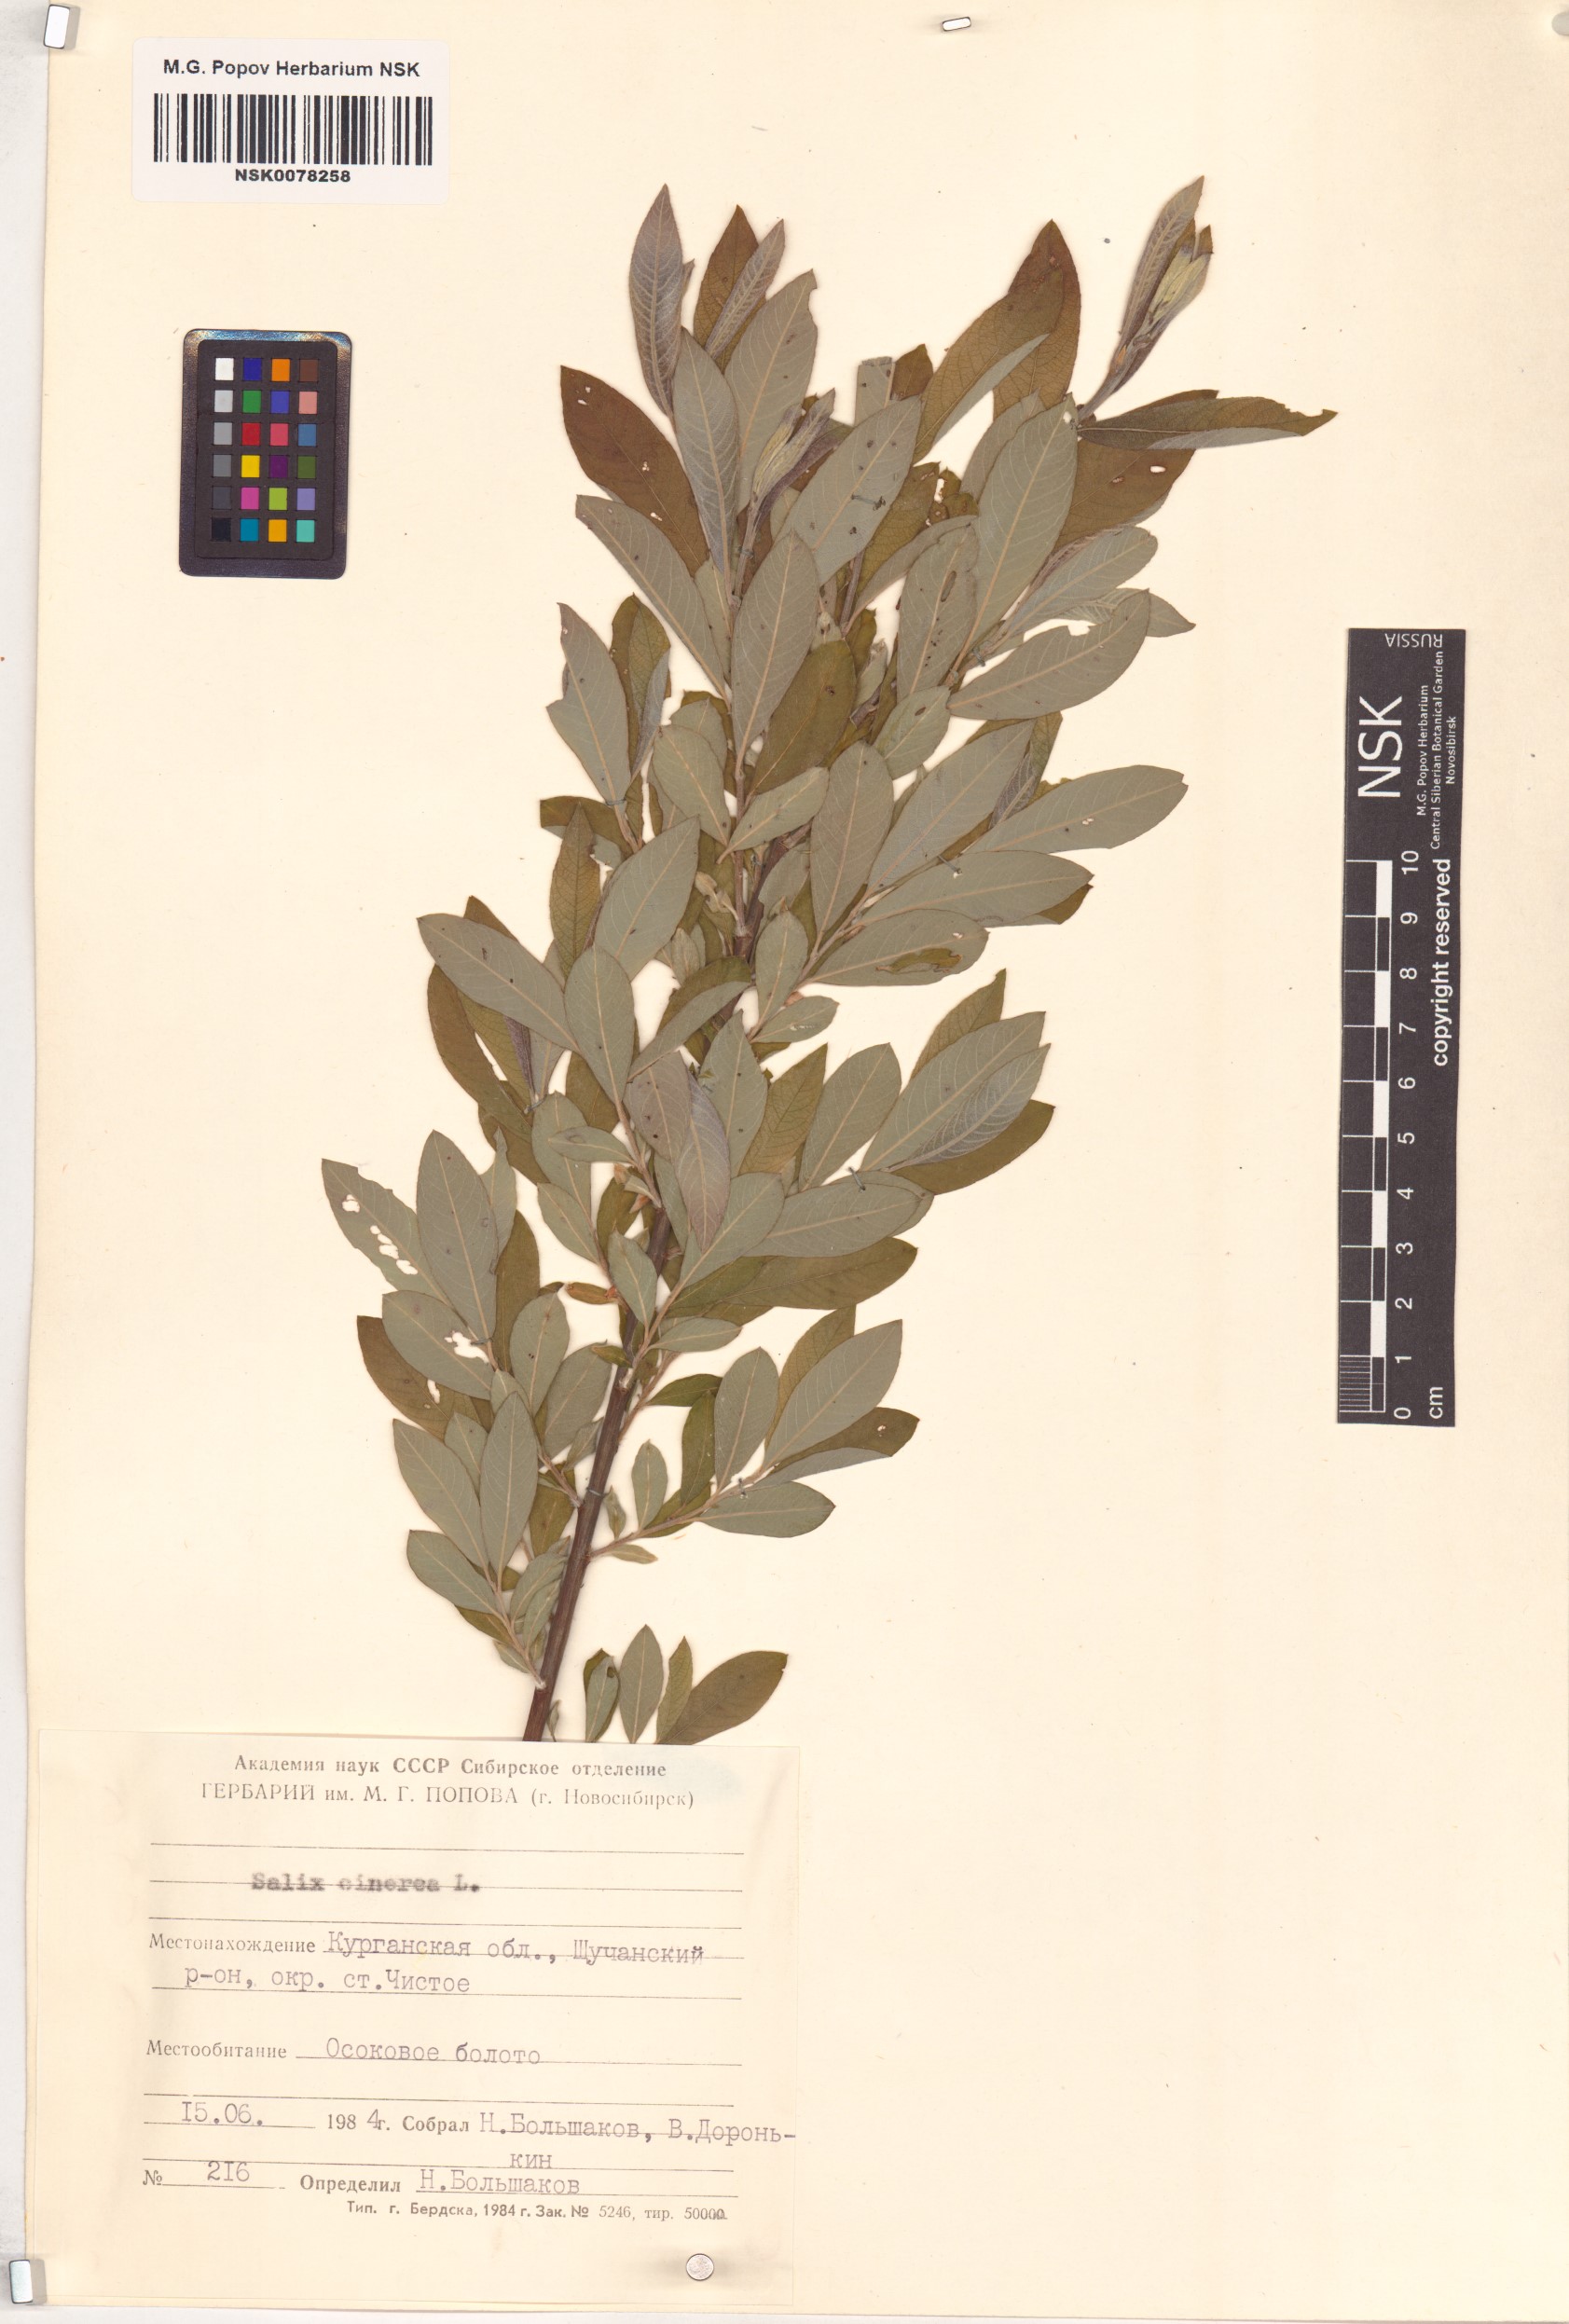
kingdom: Plantae
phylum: Tracheophyta
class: Magnoliopsida
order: Malpighiales
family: Salicaceae
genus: Salix
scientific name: Salix cinerea
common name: Common sallow
